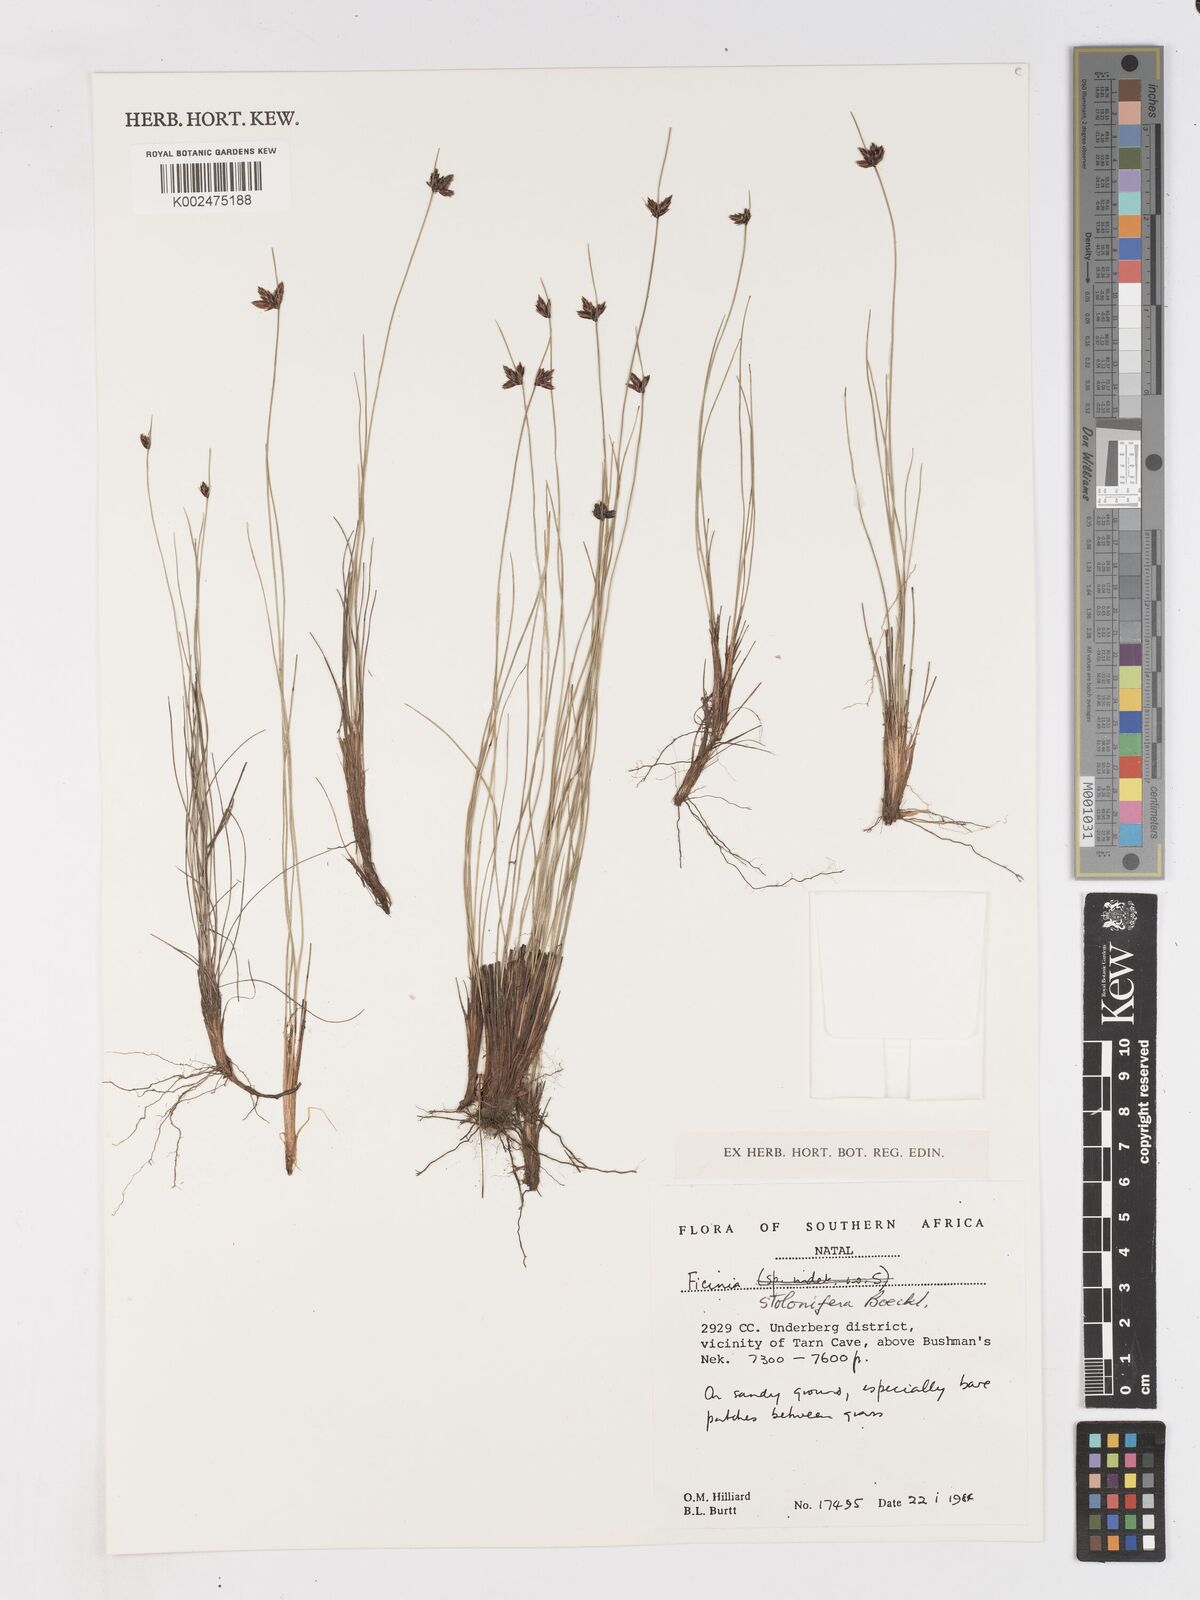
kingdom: Plantae
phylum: Tracheophyta
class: Liliopsida
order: Poales
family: Cyperaceae
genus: Ficinia
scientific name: Ficinia stolonifera
